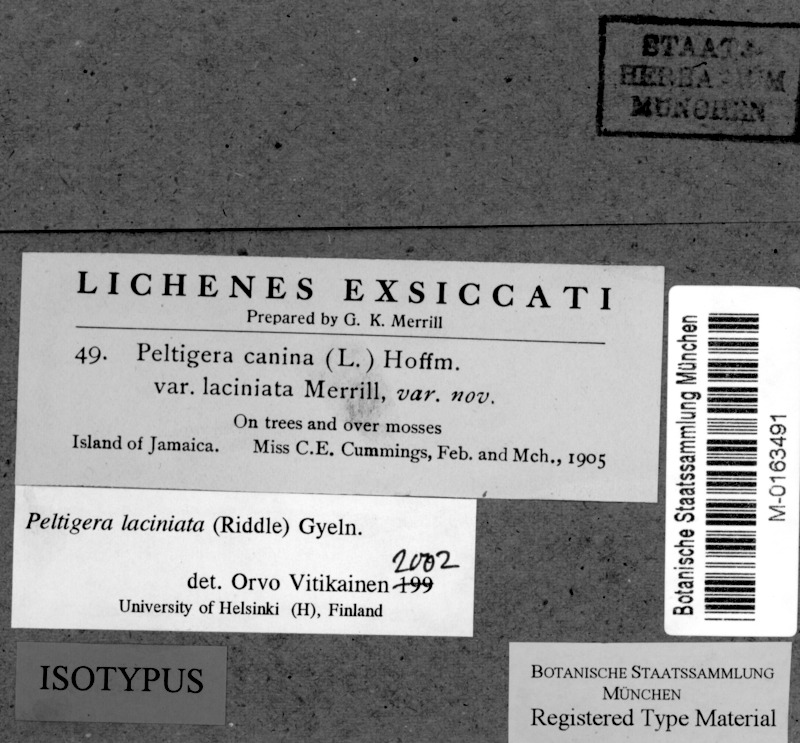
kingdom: Fungi
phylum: Ascomycota
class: Lecanoromycetes
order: Peltigerales
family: Peltigeraceae
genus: Peltigera
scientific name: Peltigera laciniata
